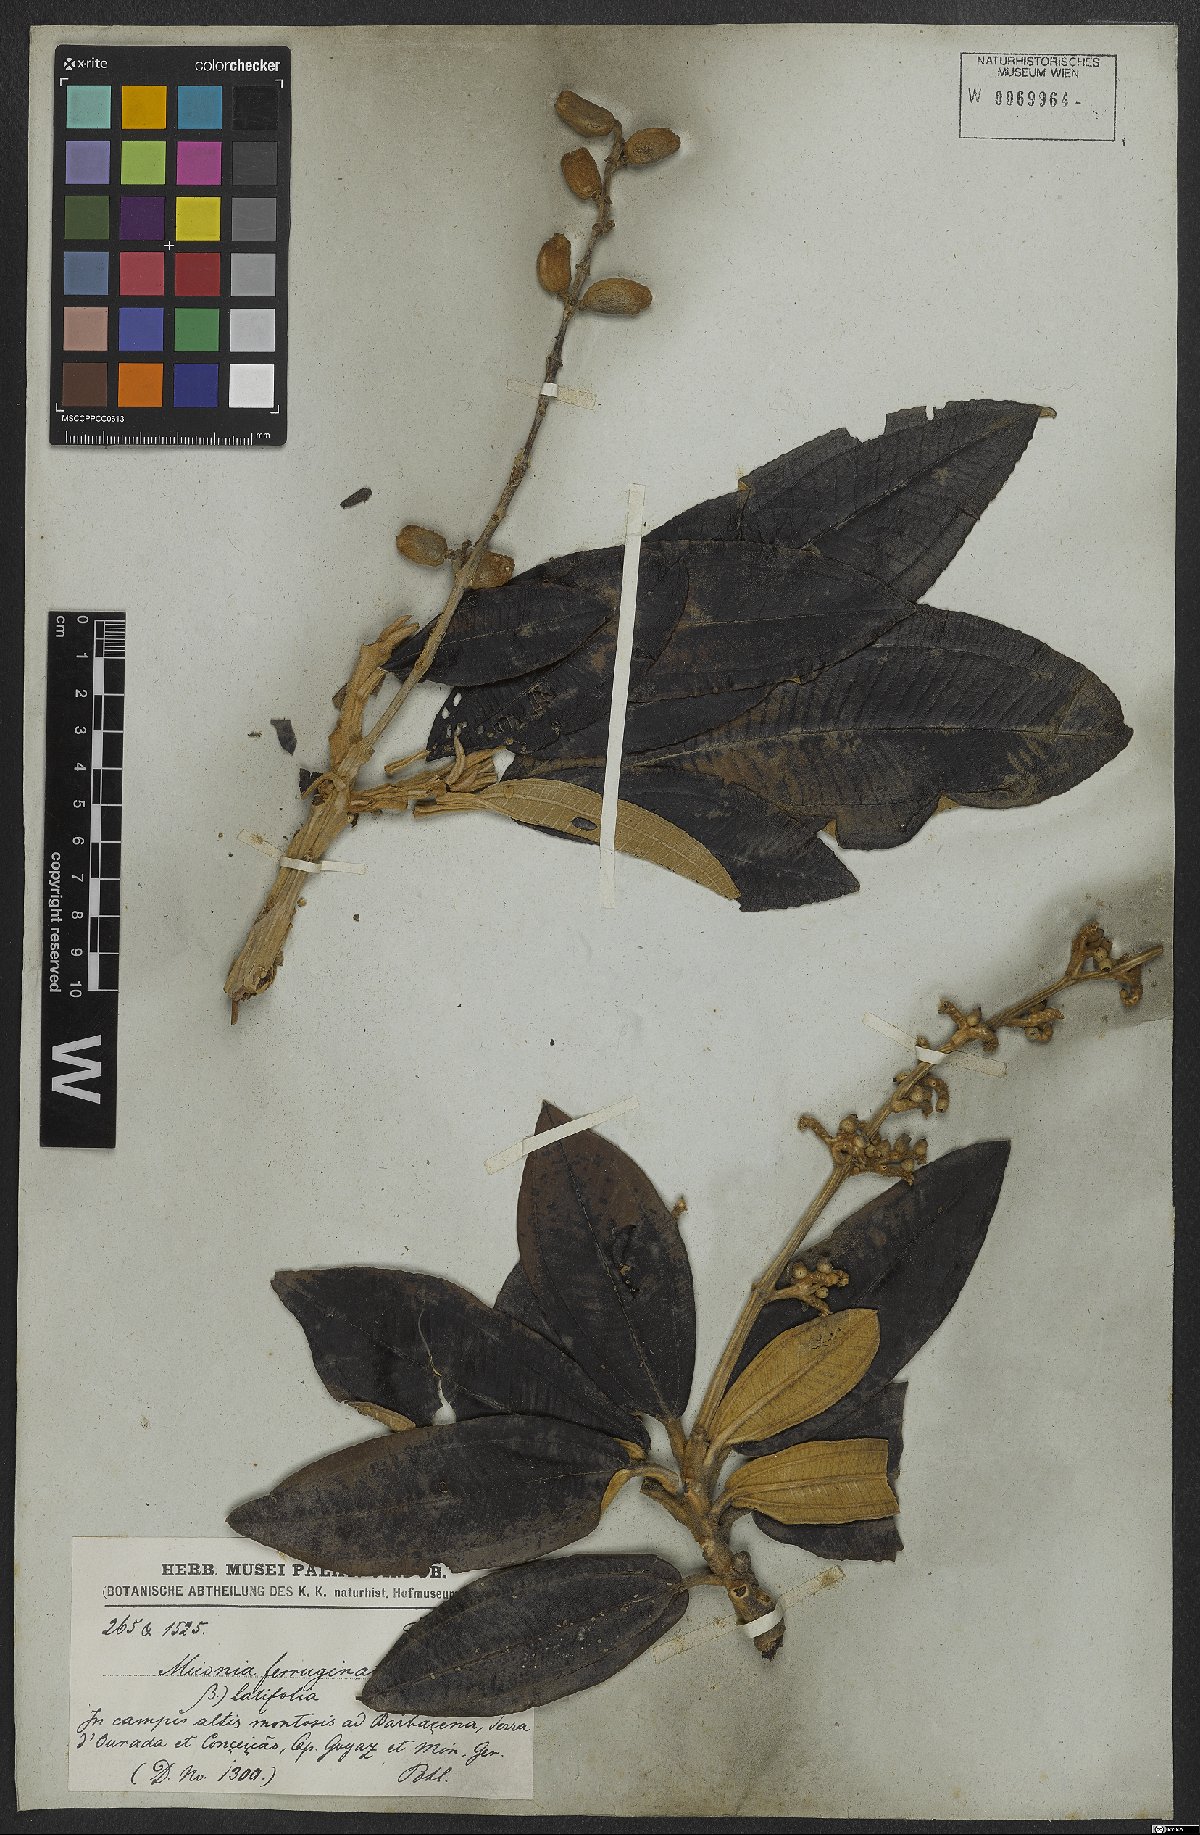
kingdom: Plantae
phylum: Tracheophyta
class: Magnoliopsida
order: Myrtales
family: Melastomataceae
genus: Miconia
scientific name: Miconia ferruginata
